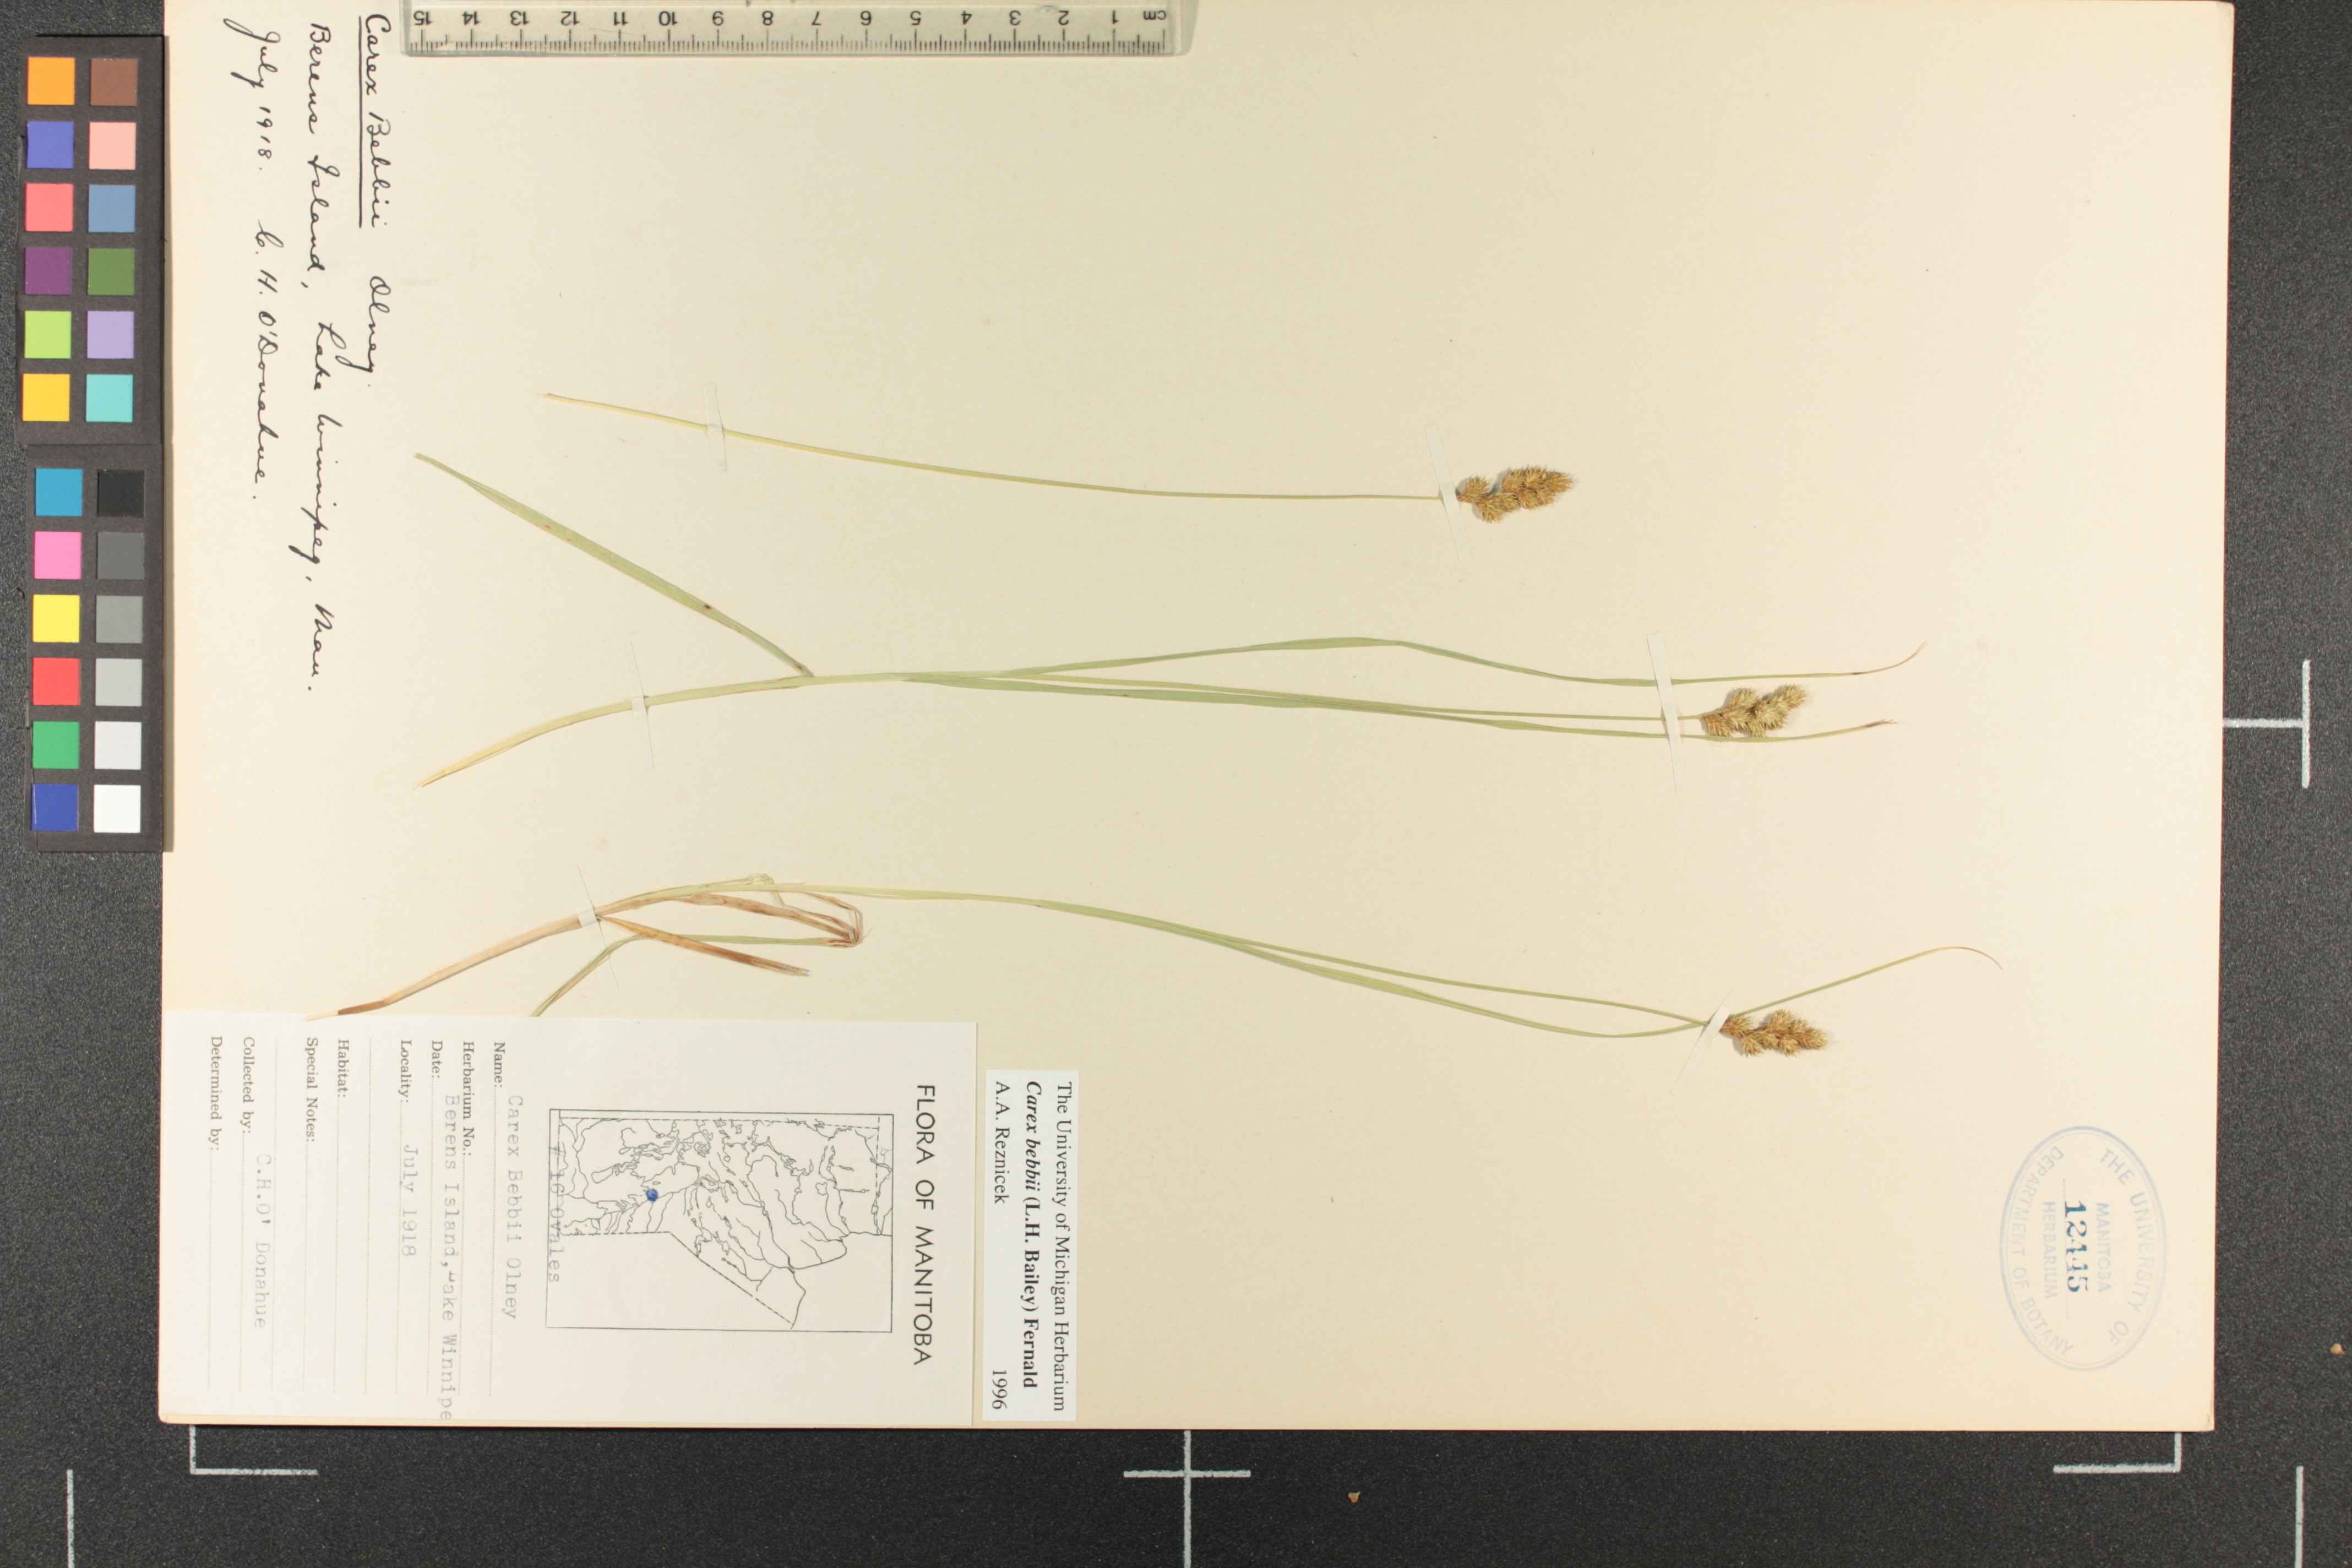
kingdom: Plantae
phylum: Tracheophyta
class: Liliopsida
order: Poales
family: Cyperaceae
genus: Carex
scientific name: Carex bebbii
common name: Bebb's sedge
